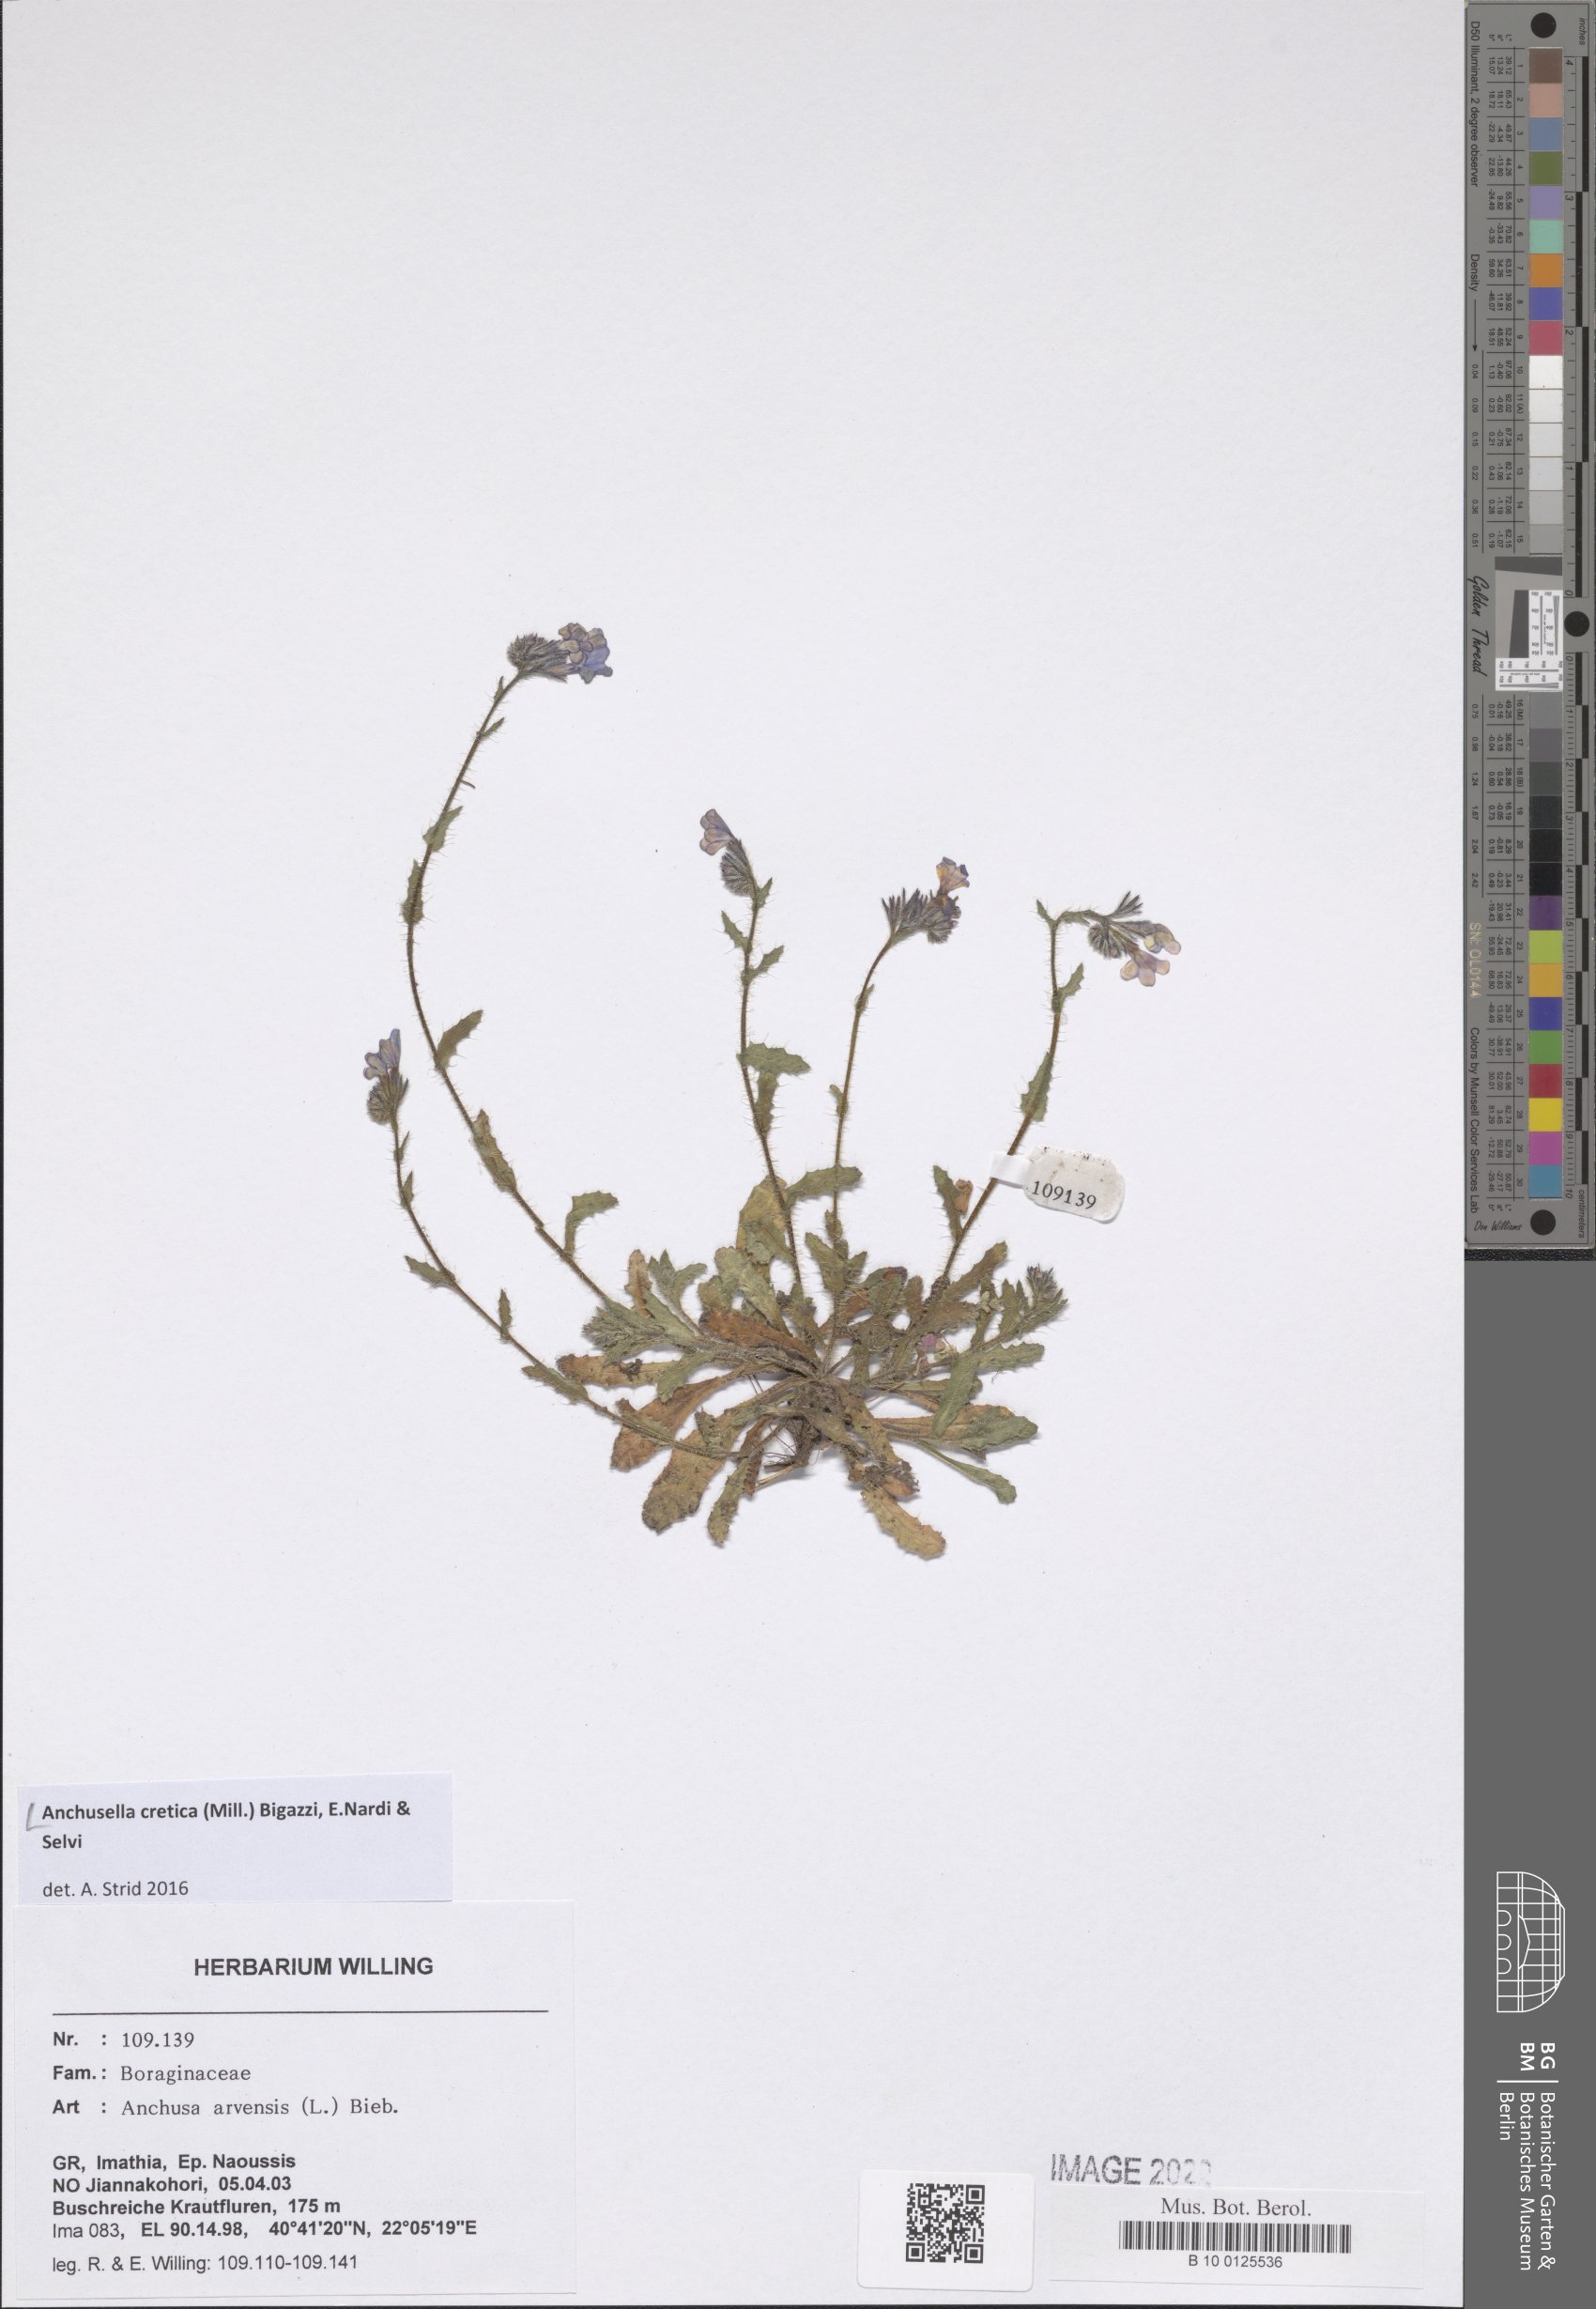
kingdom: Plantae
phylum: Tracheophyta
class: Magnoliopsida
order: Boraginales
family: Boraginaceae
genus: Anchusella
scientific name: Anchusella cretica
